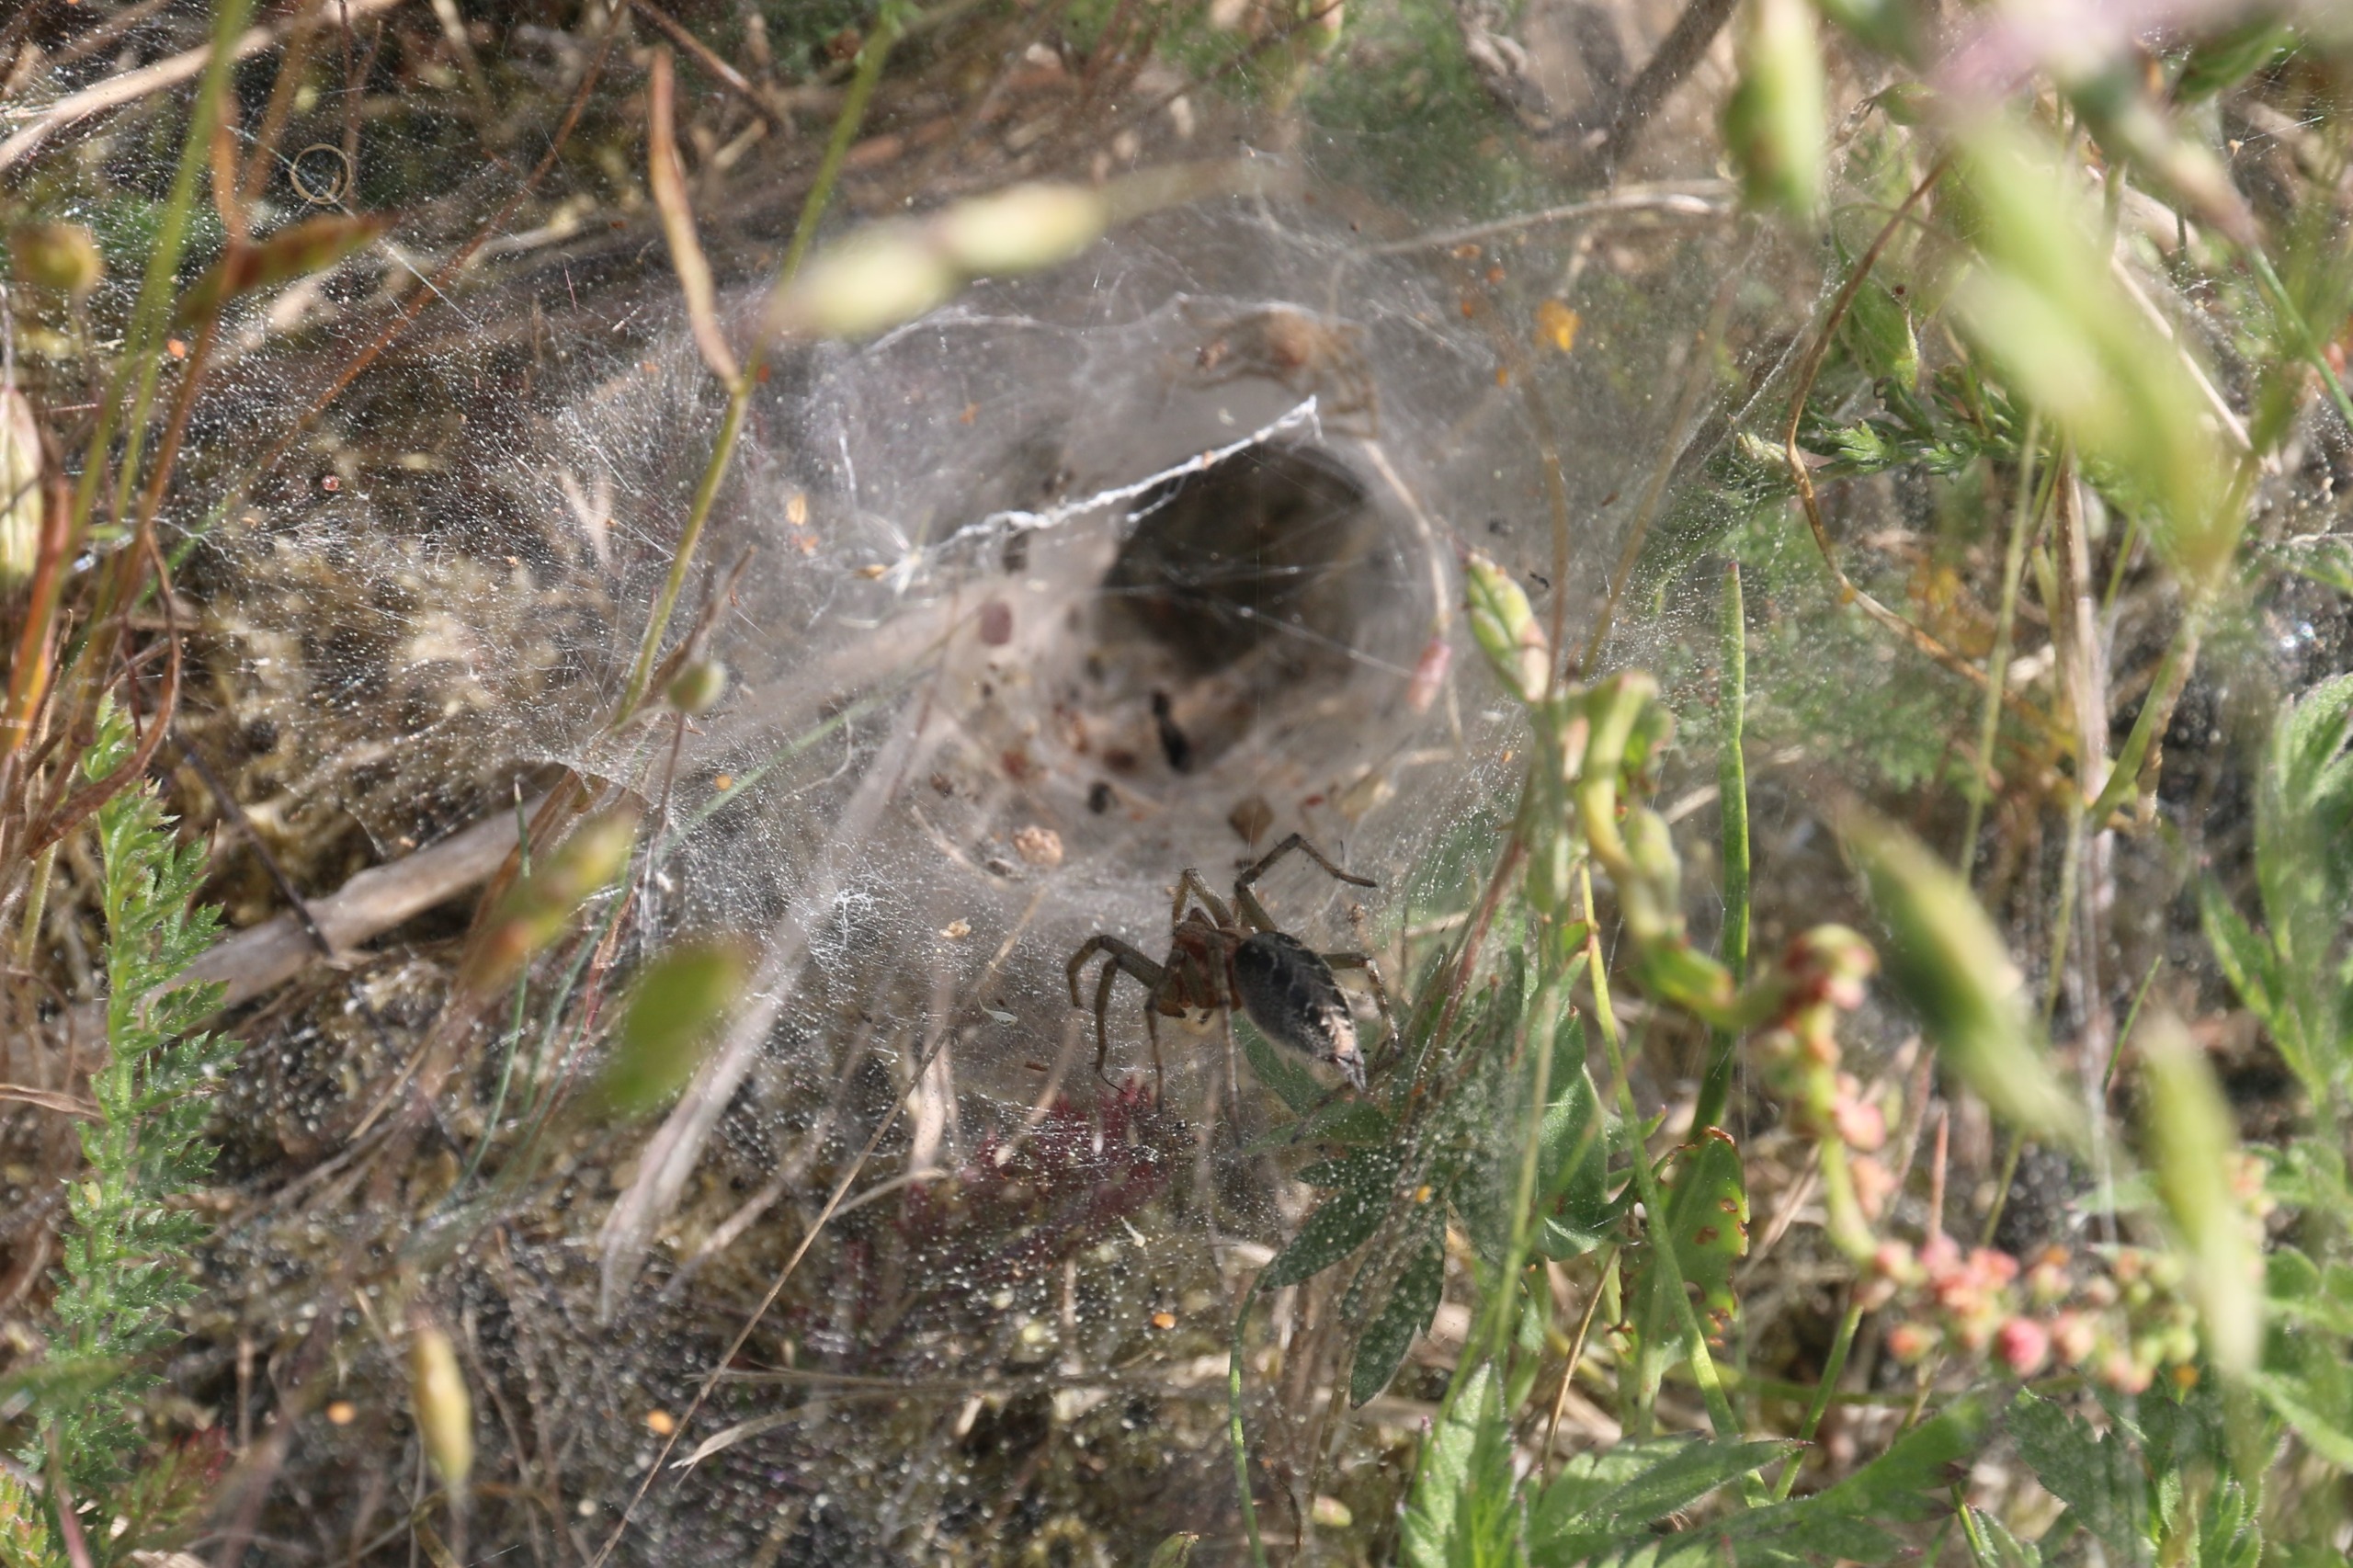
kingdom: Animalia
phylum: Arthropoda
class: Arachnida
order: Araneae
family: Agelenidae
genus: Agelena
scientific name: Agelena labyrinthica
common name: Labyrintedderkop
